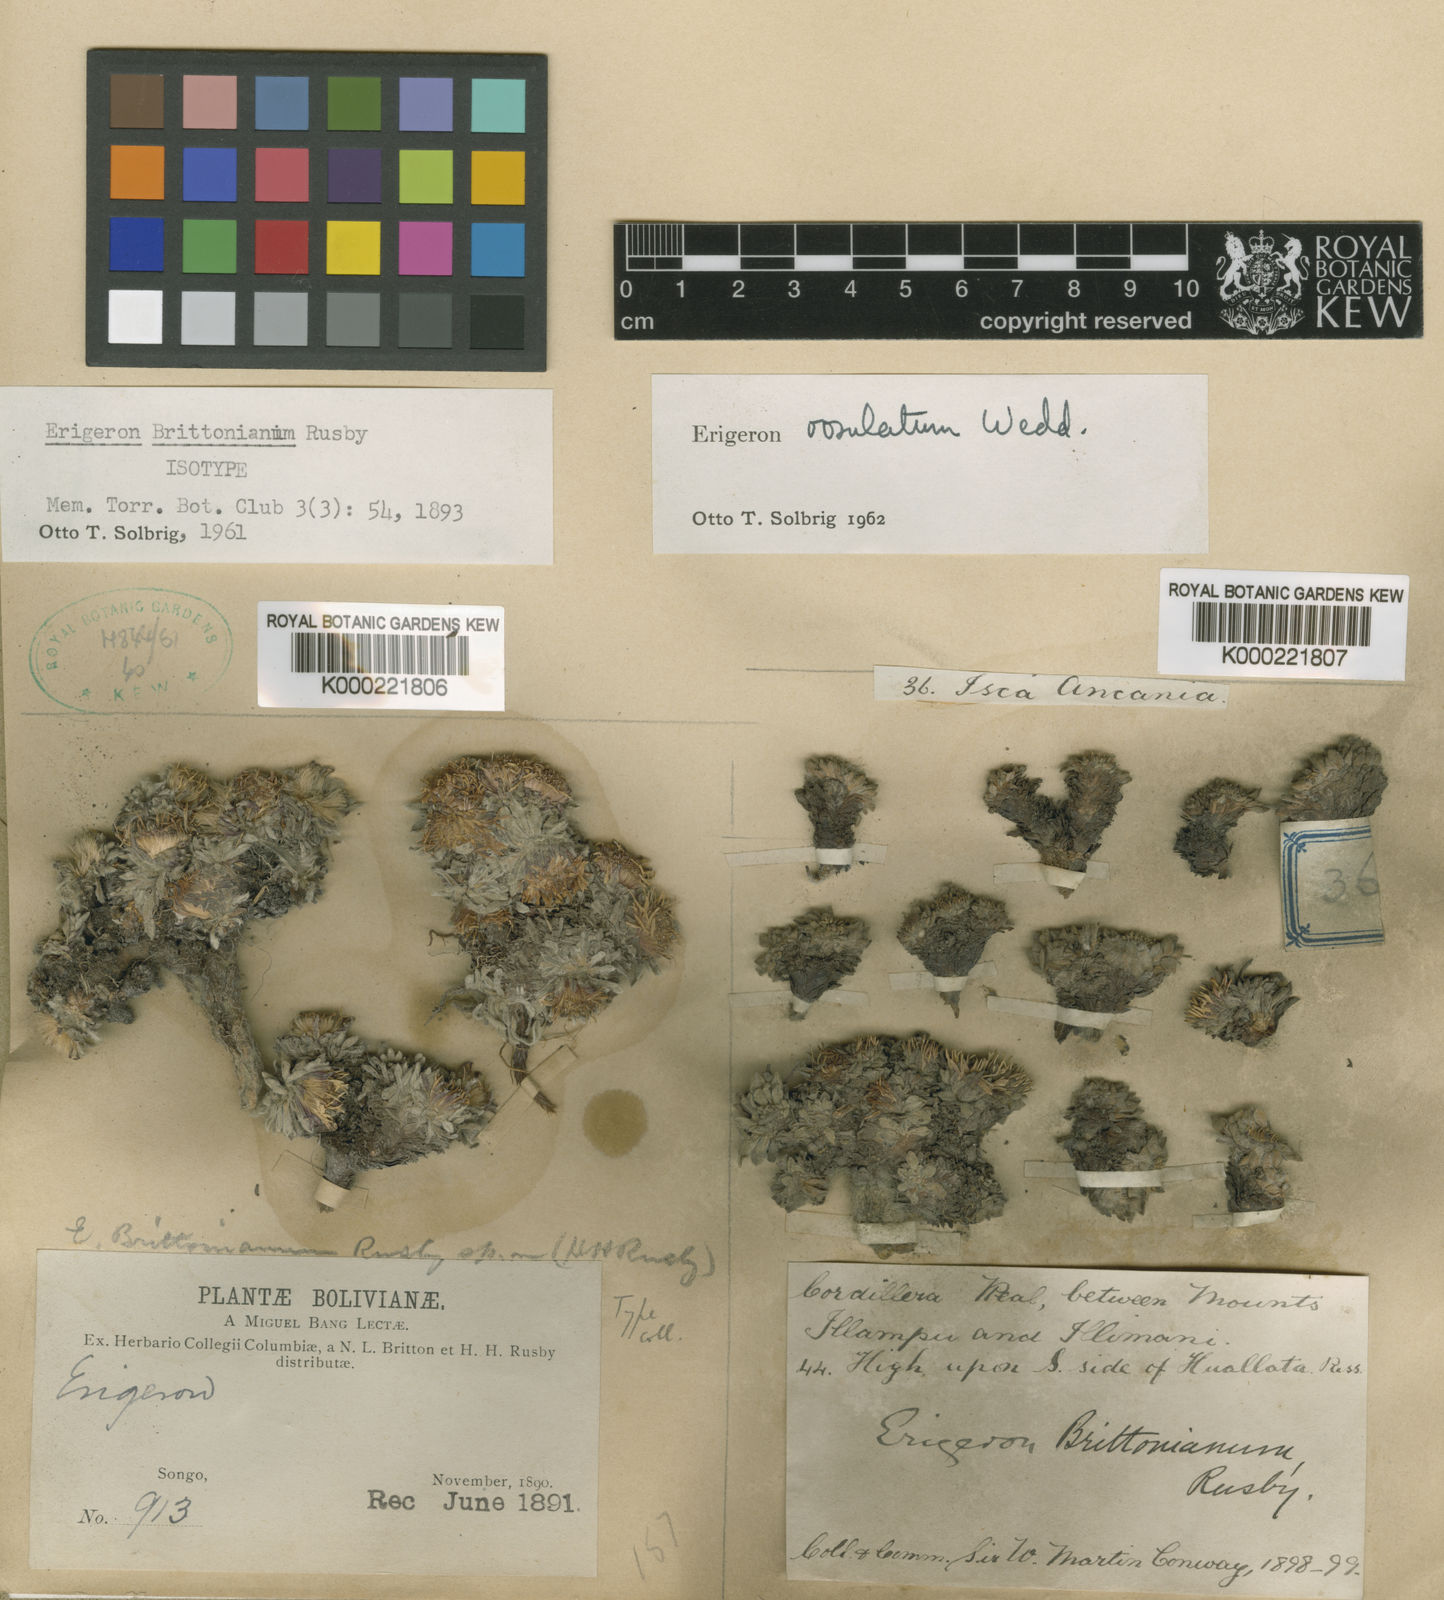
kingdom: Plantae
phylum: Tracheophyta
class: Magnoliopsida
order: Asterales
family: Asteraceae
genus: Erigeron
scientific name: Erigeron rosulatus
